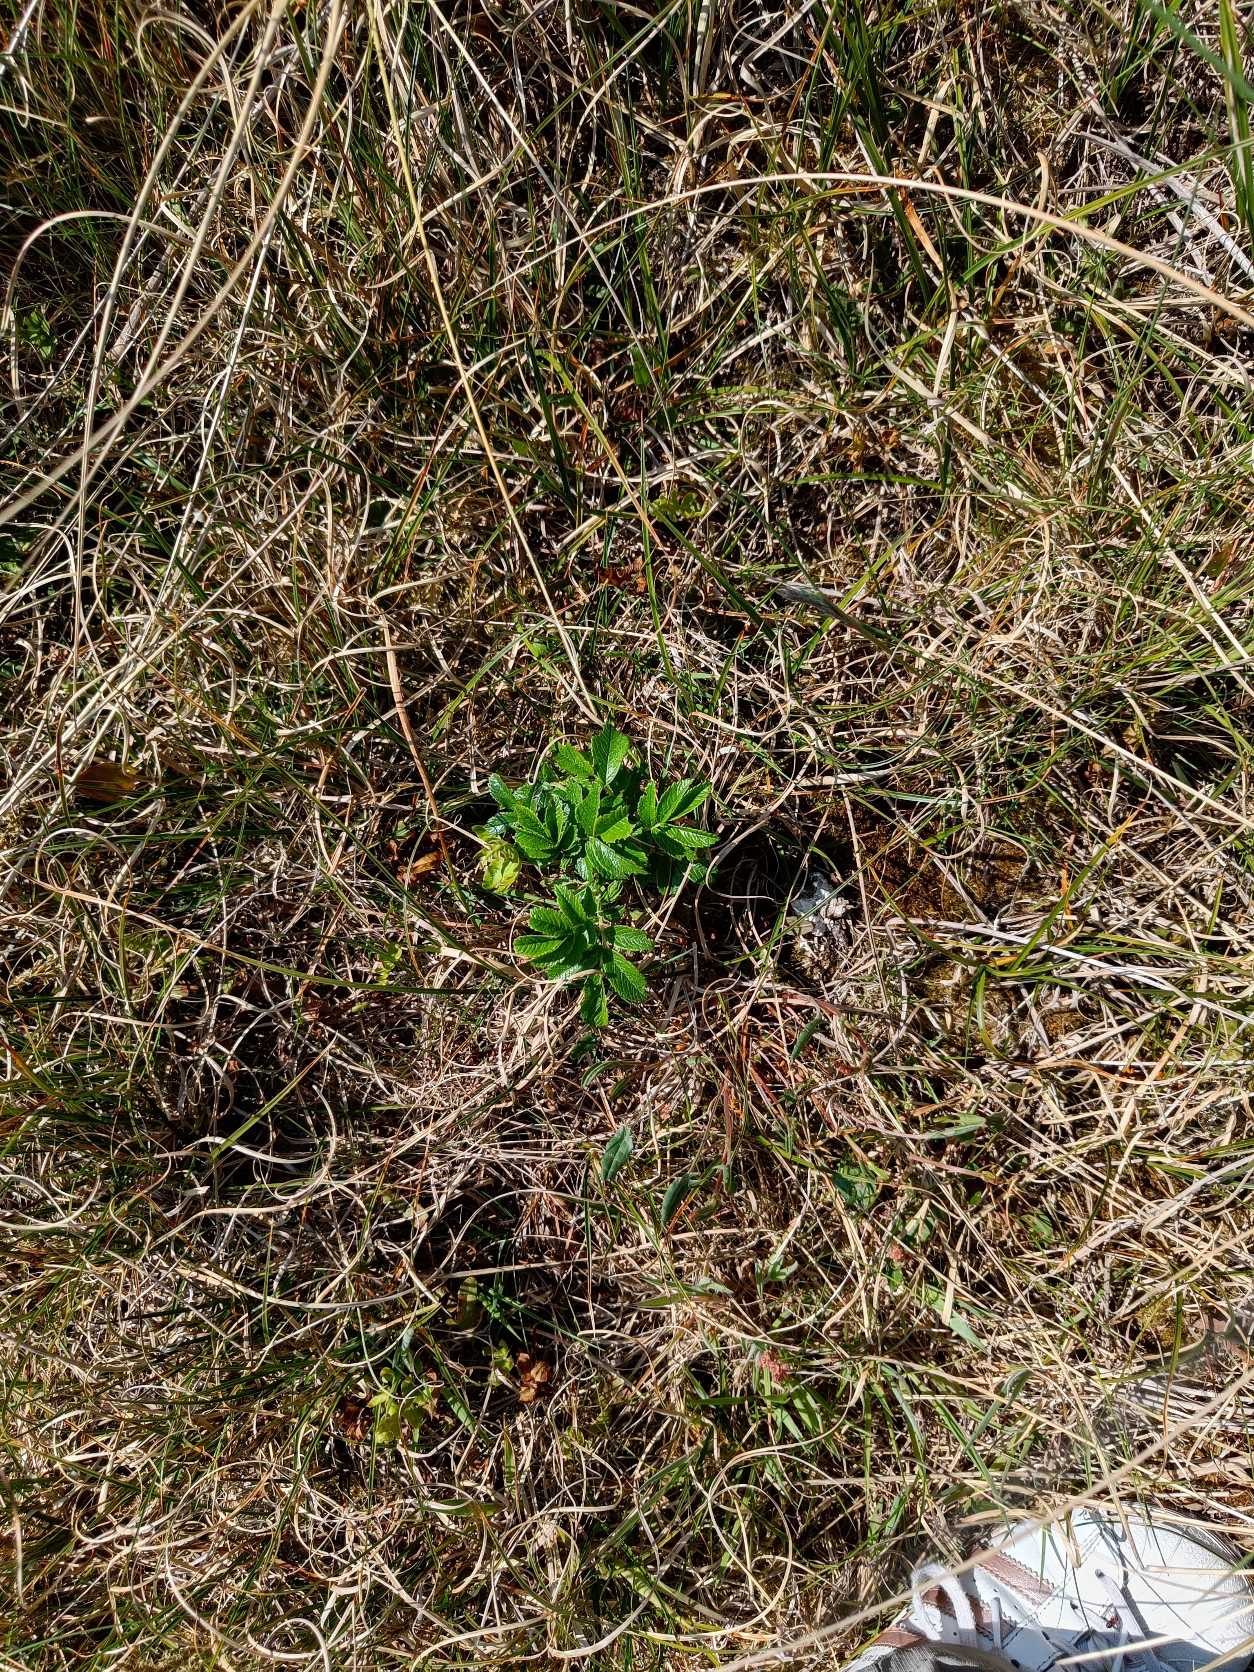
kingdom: Plantae
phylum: Tracheophyta
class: Magnoliopsida
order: Rosales
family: Rosaceae
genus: Rosa
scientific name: Rosa rugosa
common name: Rynket rose
